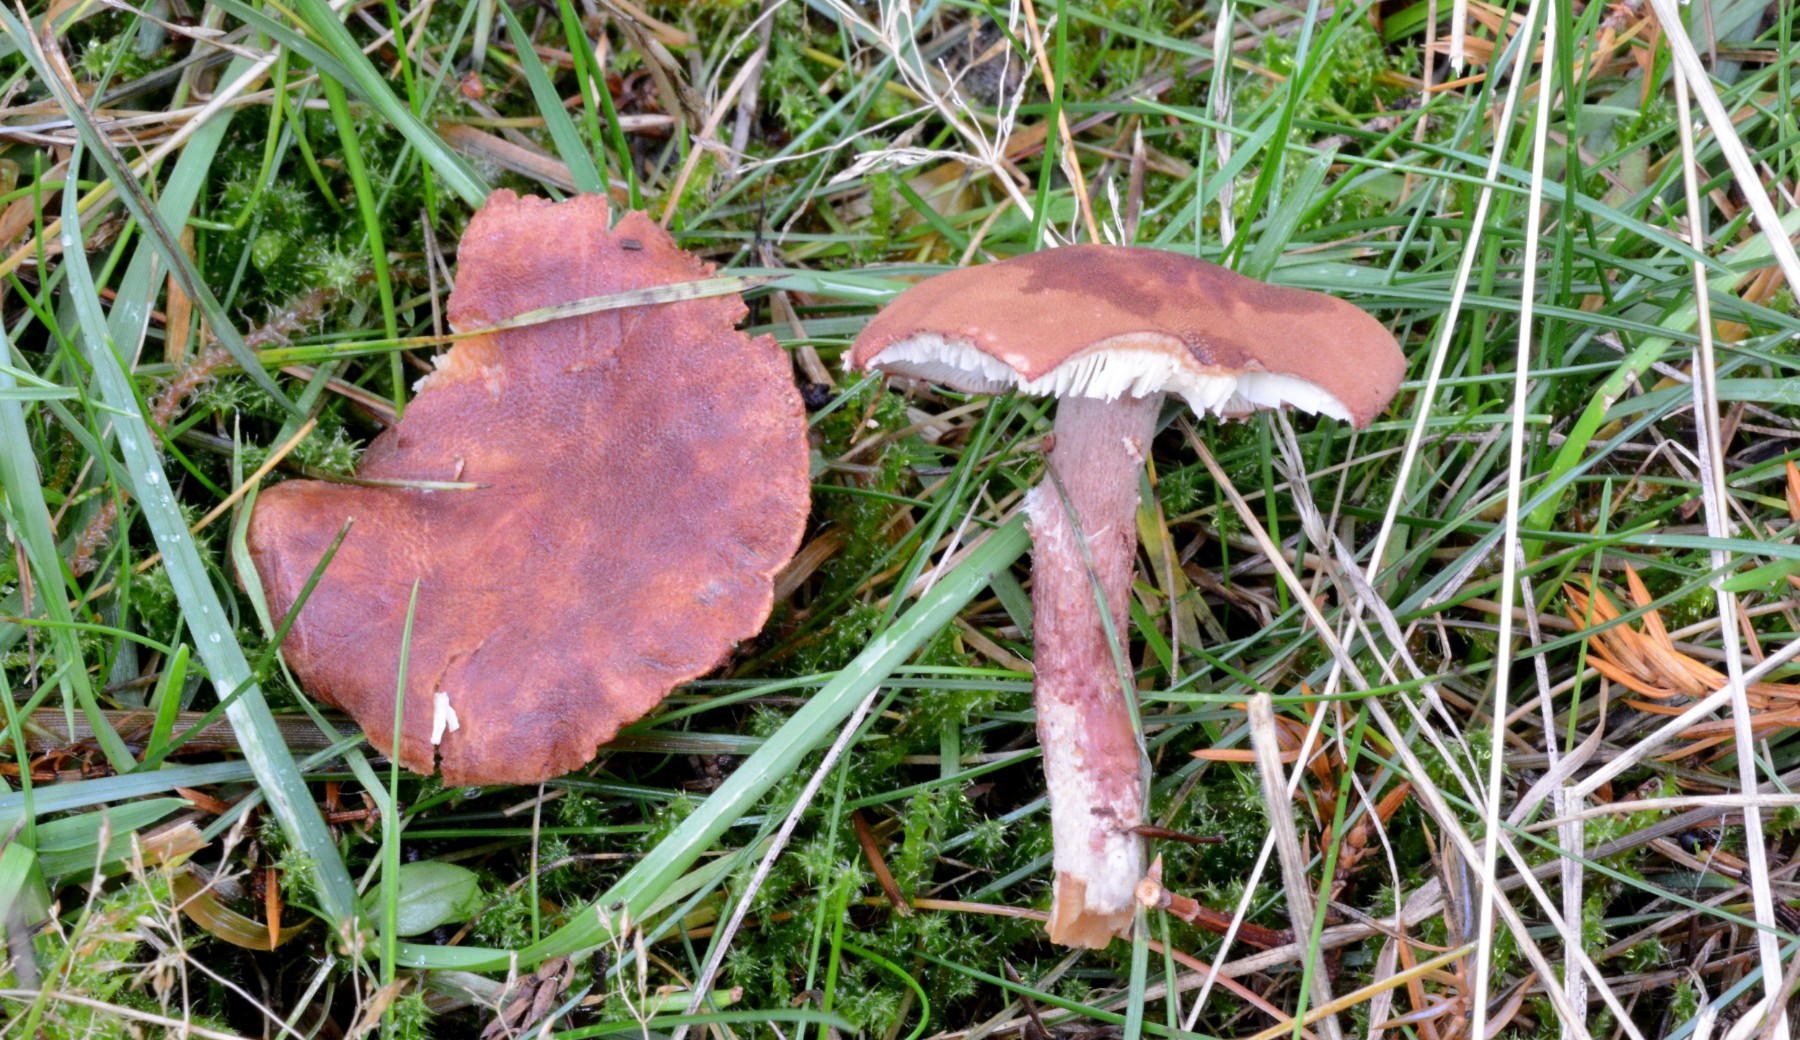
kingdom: Fungi
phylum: Basidiomycota
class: Agaricomycetes
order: Agaricales
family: Agaricaceae
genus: Cystodermella
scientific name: Cystodermella granulosa
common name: kliddet grynhat
